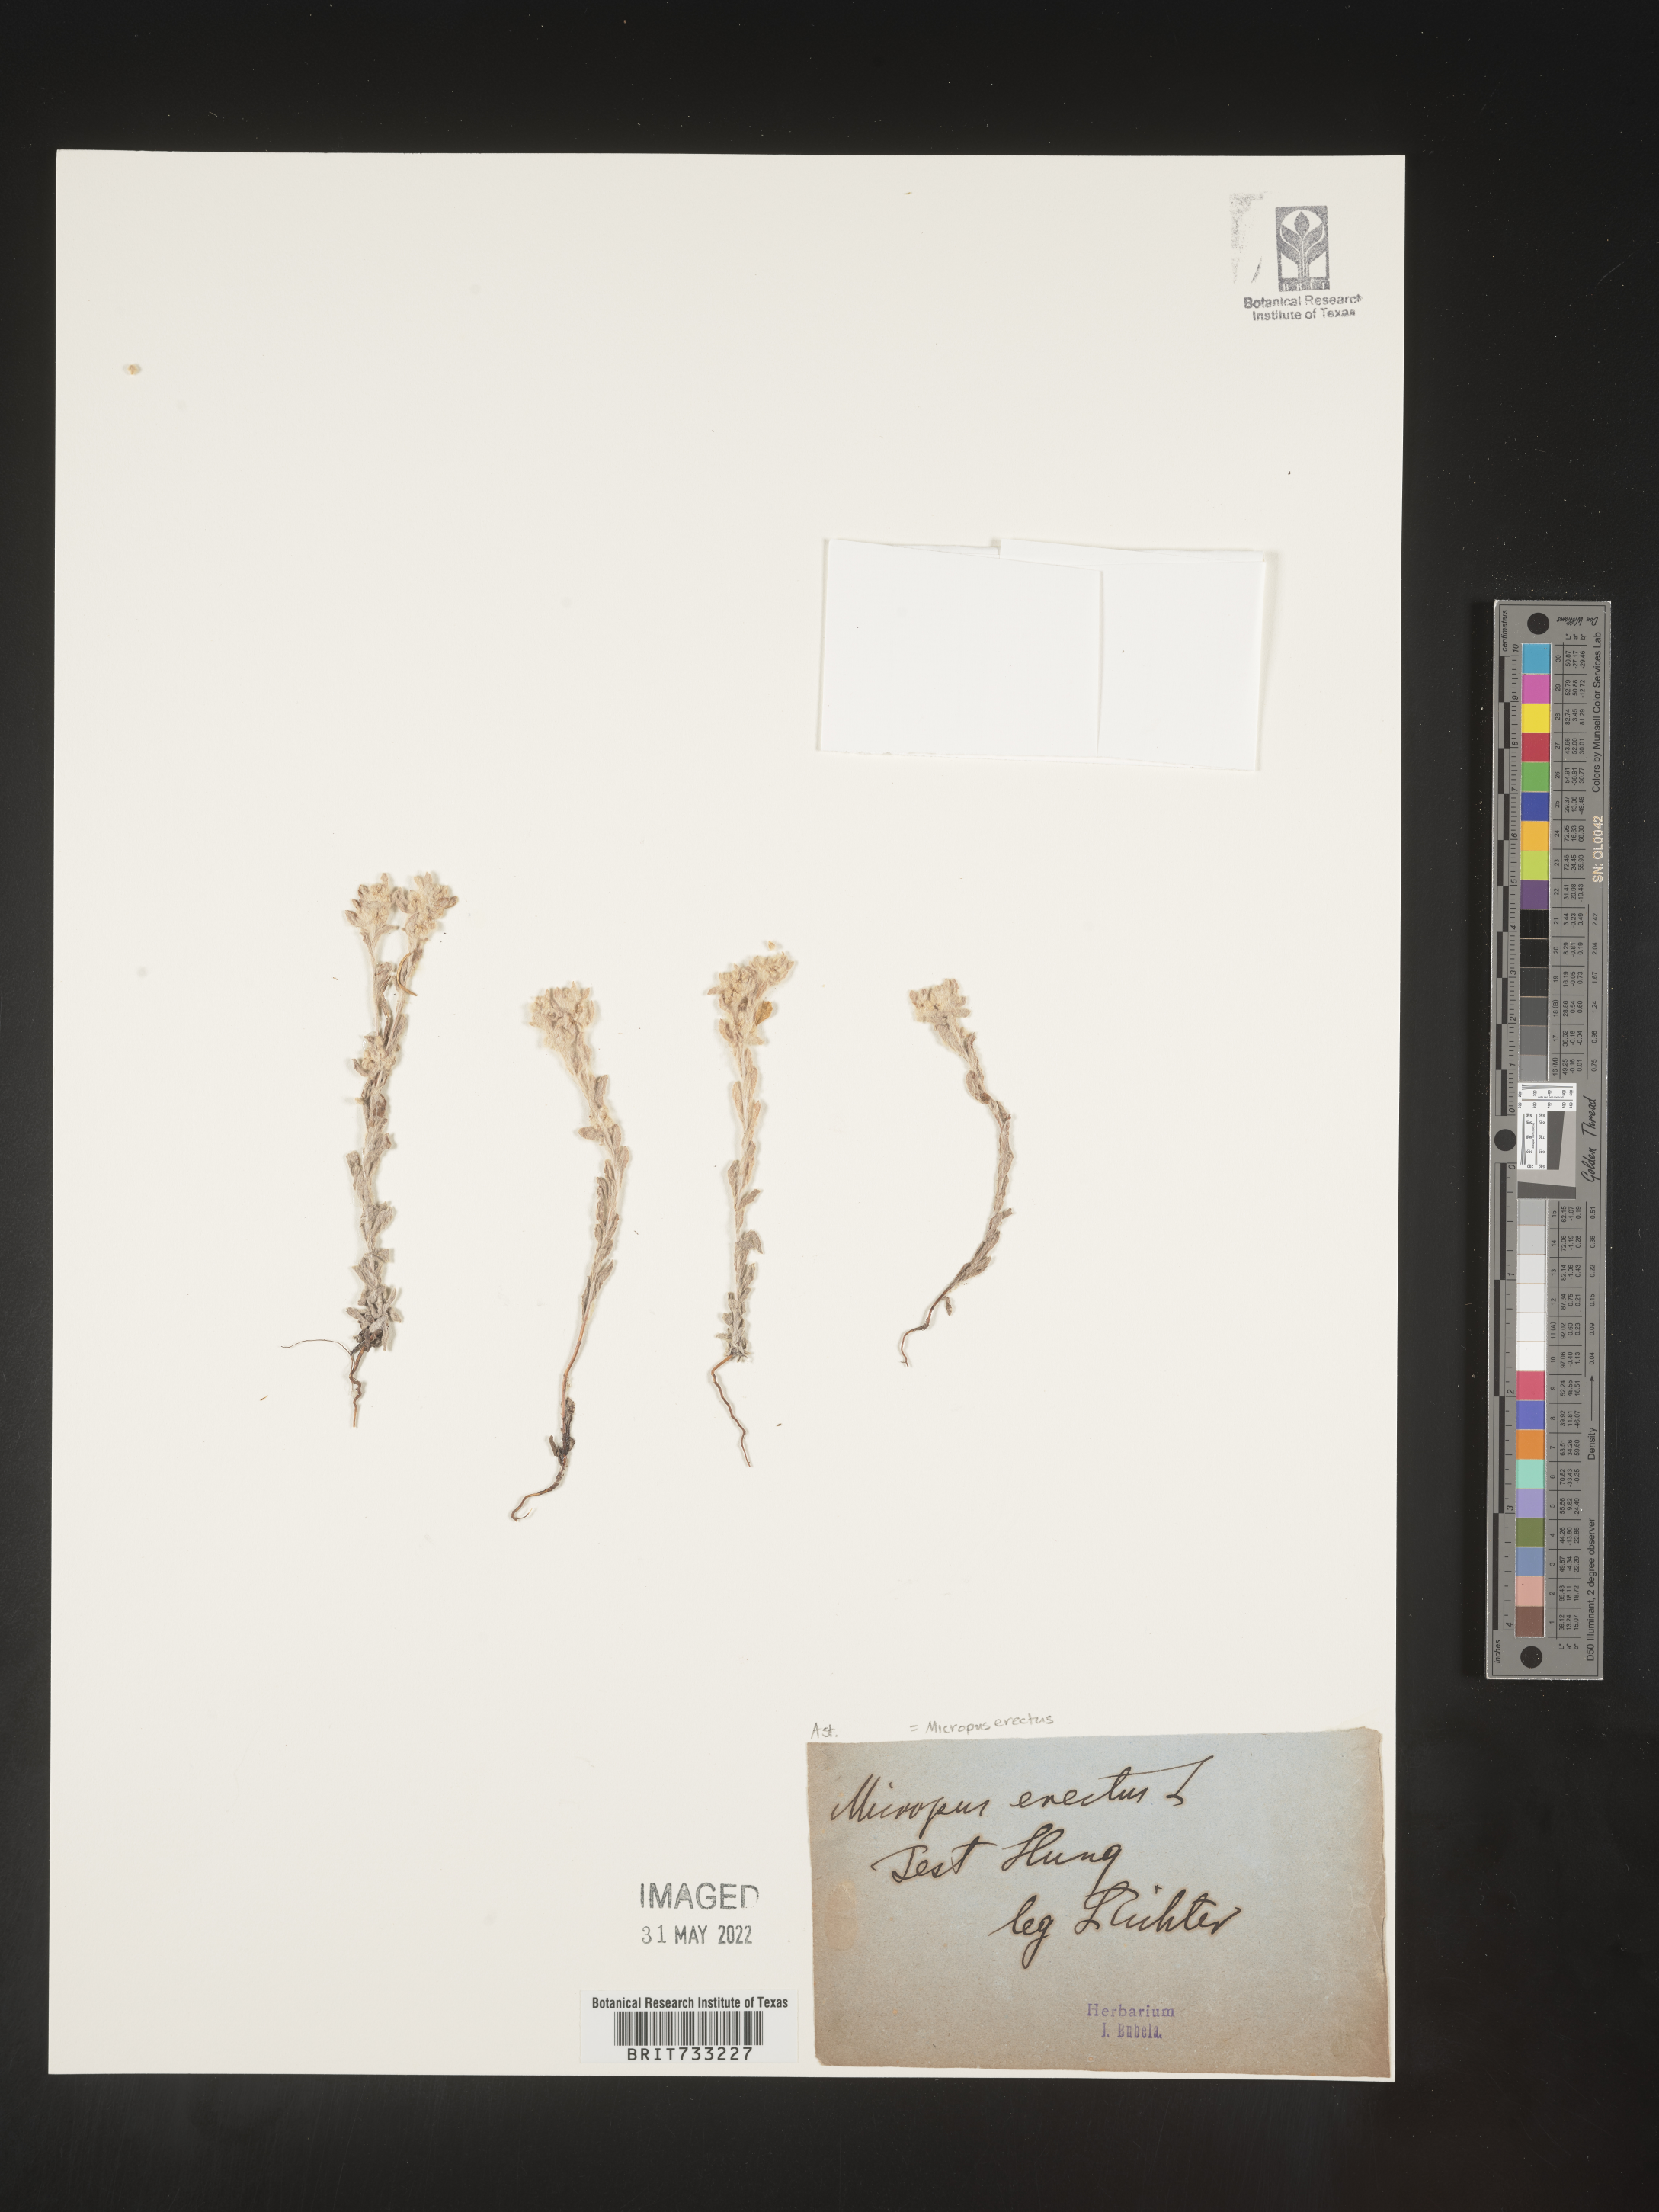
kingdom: Plantae
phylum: Tracheophyta
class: Magnoliopsida
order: Asterales
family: Asteraceae
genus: Micropus
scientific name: Micropus
